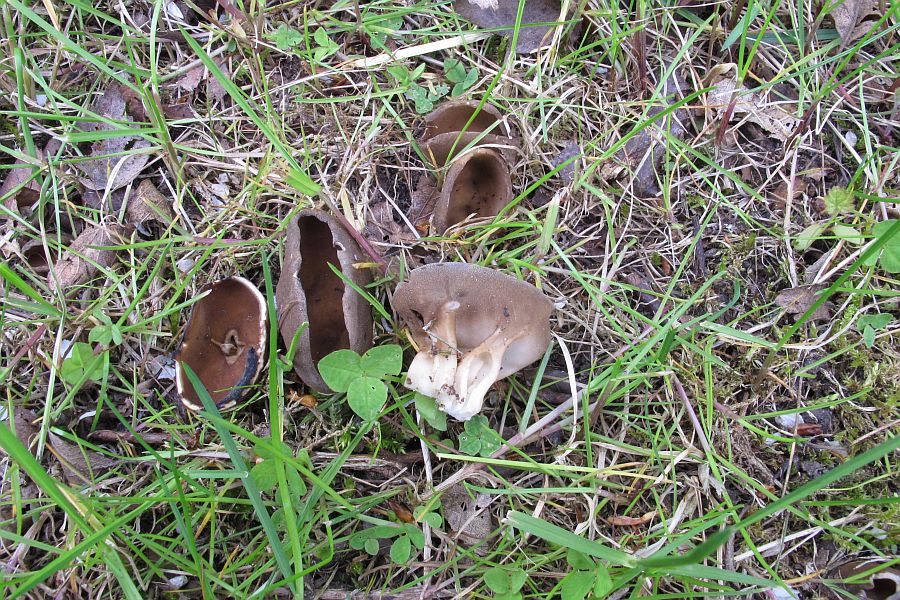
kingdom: Fungi
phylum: Ascomycota
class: Pezizomycetes
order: Pezizales
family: Helvellaceae
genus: Helvella
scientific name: Helvella acetabulum
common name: pokal-foldhat
